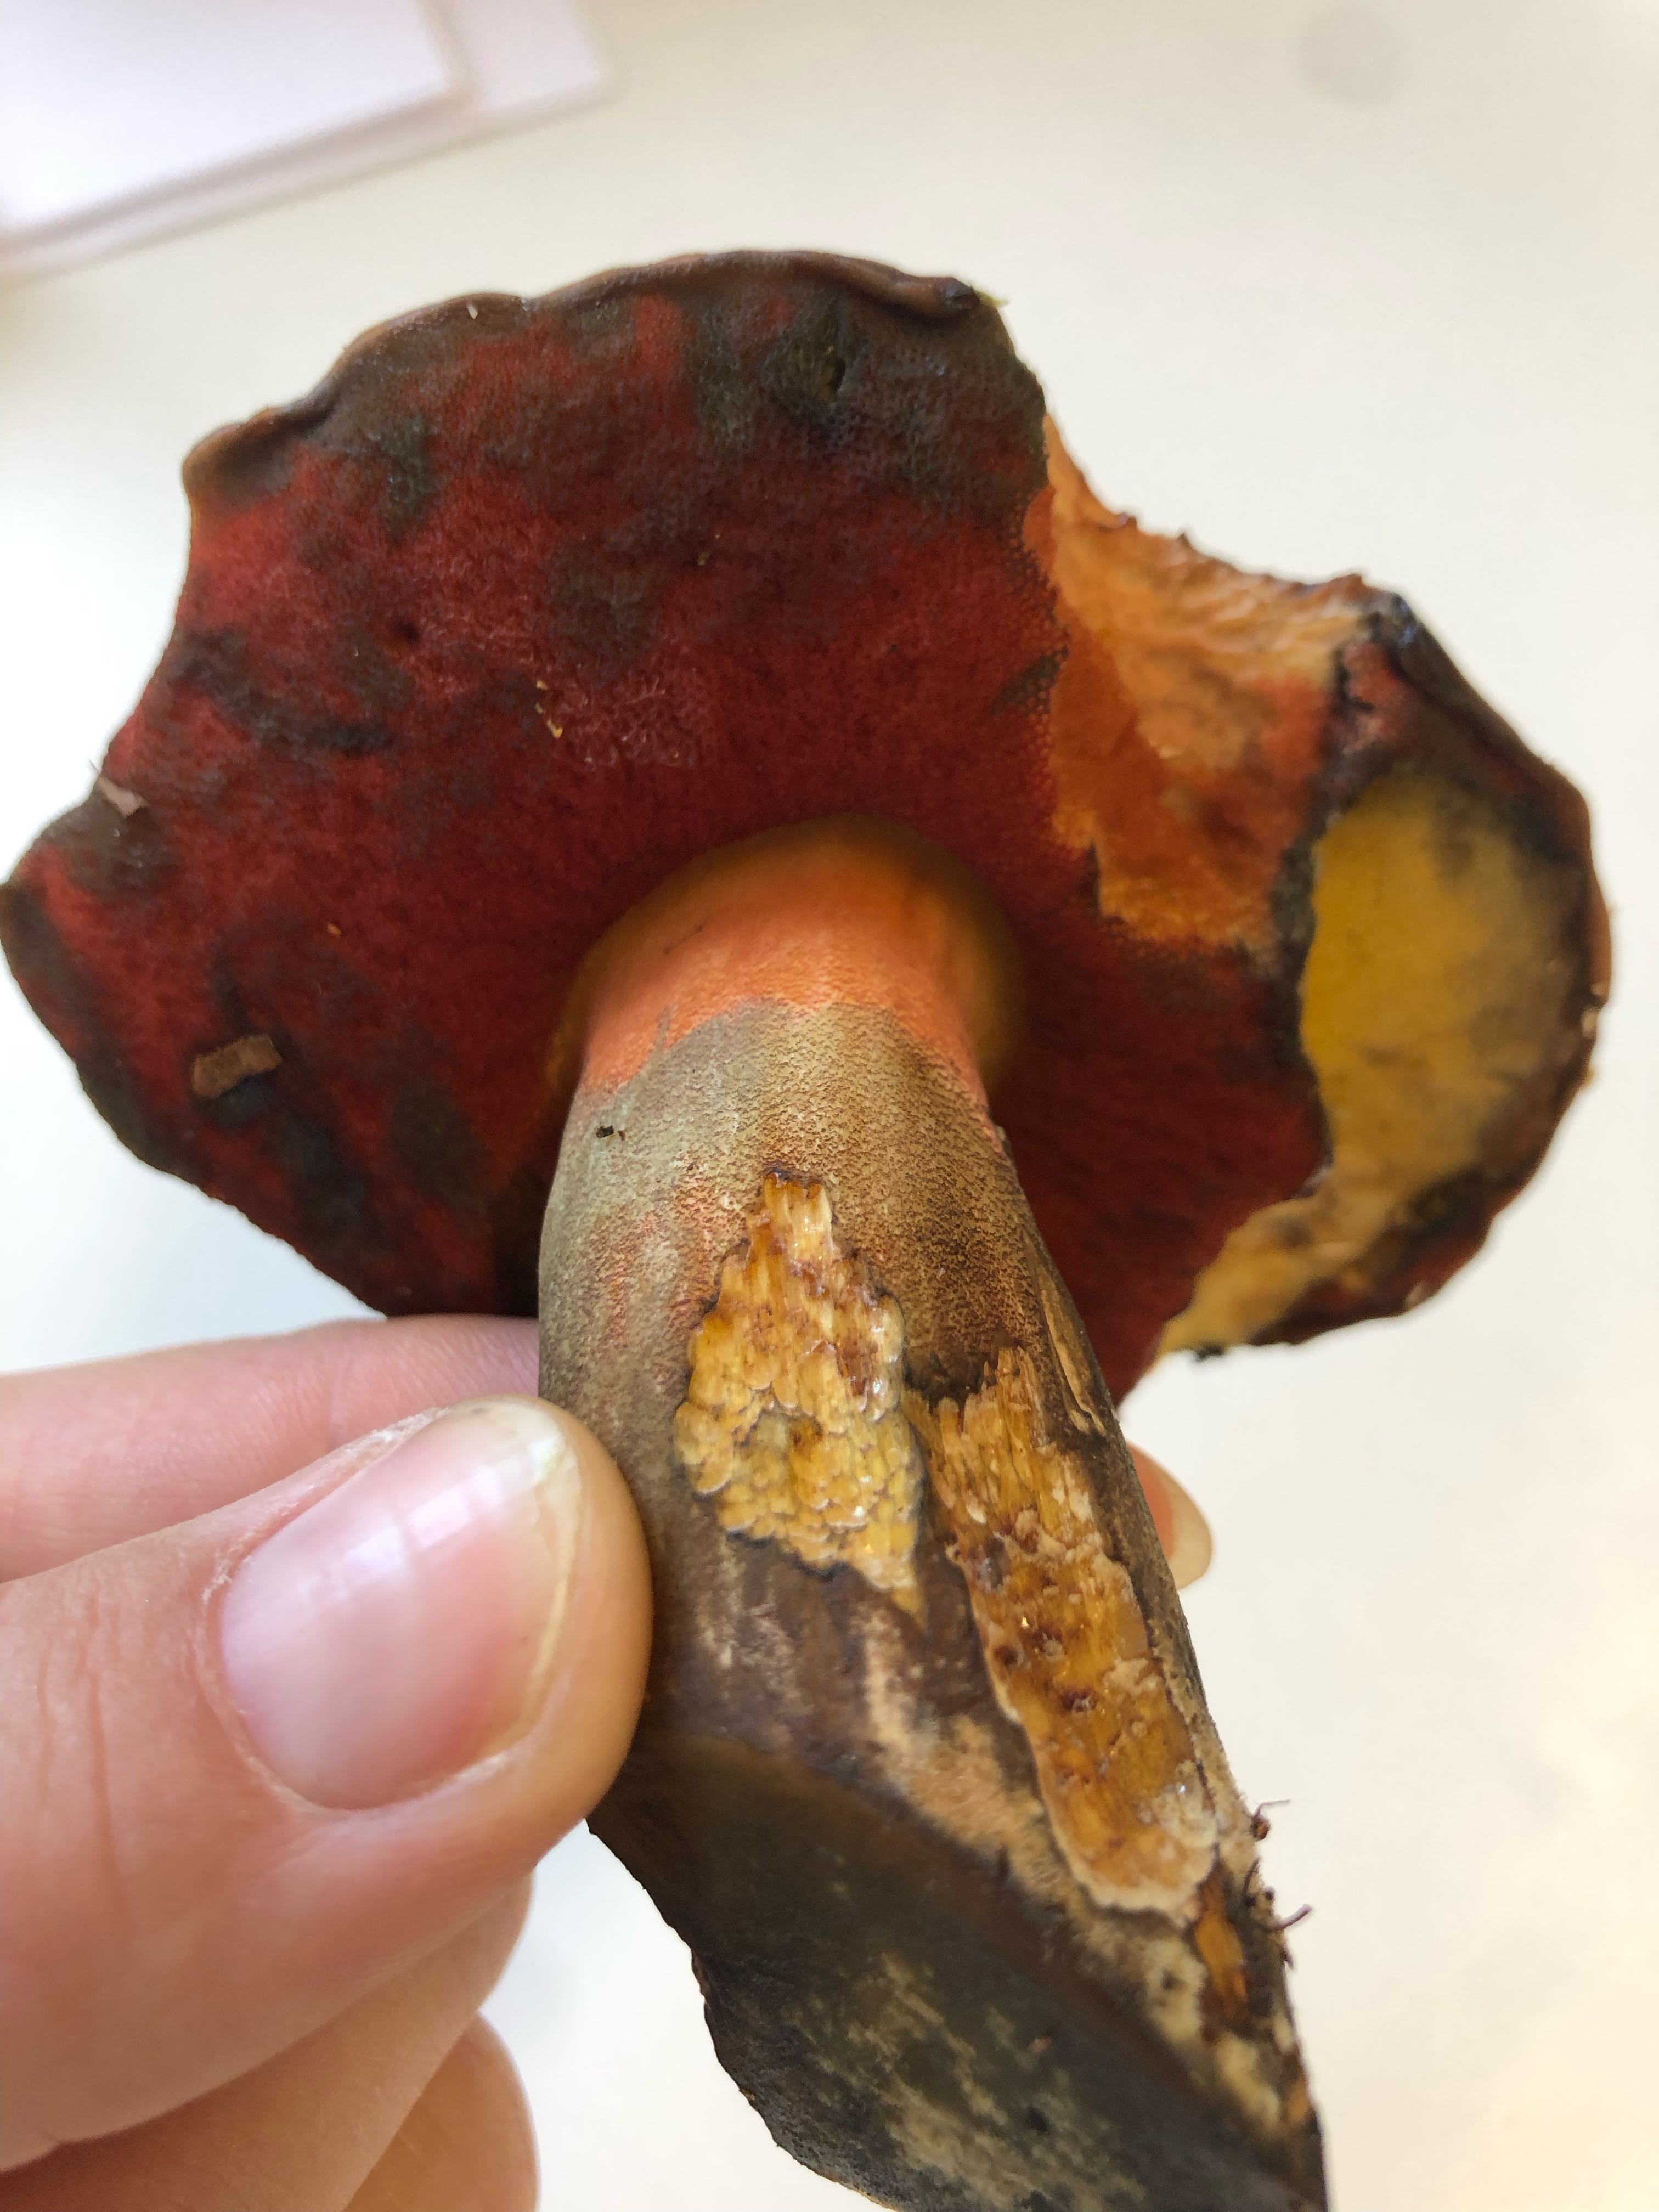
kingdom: Fungi
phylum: Basidiomycota
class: Agaricomycetes
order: Boletales
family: Boletaceae
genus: Neoboletus
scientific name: Neoboletus erythropus
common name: punktstokket indigorørhat
